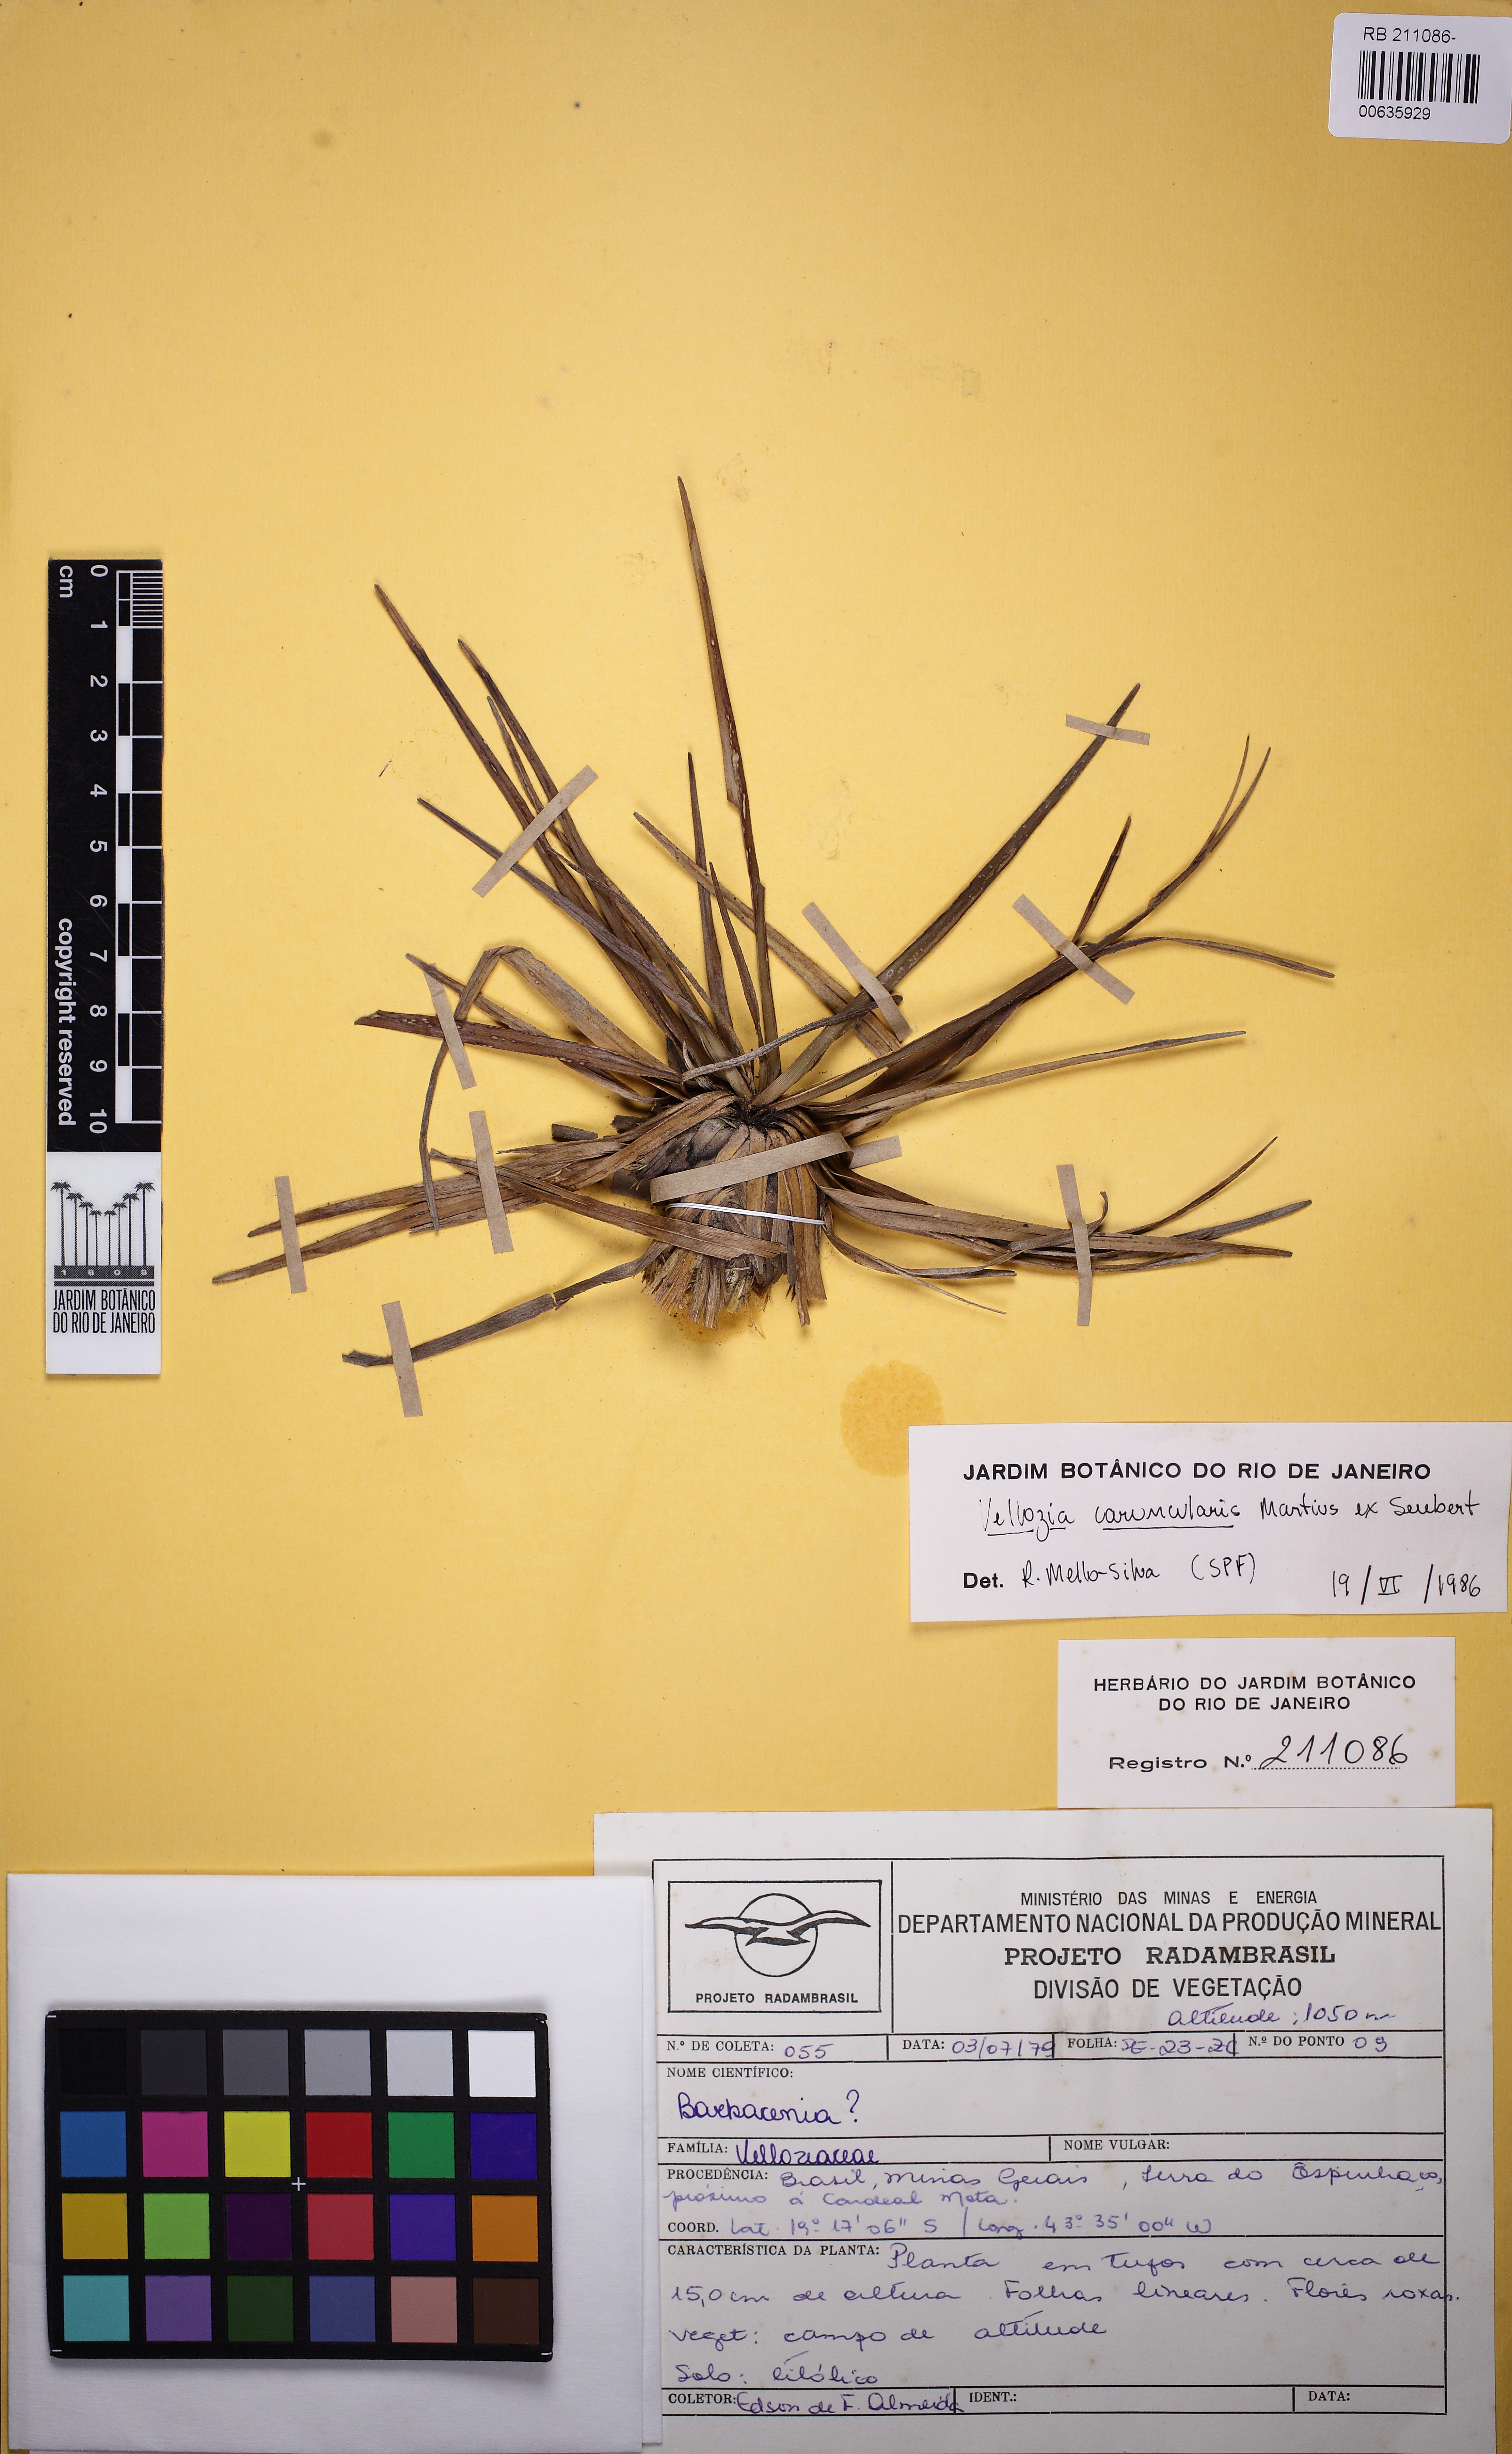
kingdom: Plantae
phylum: Tracheophyta
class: Liliopsida
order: Pandanales
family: Velloziaceae
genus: Vellozia
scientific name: Vellozia caruncularis
